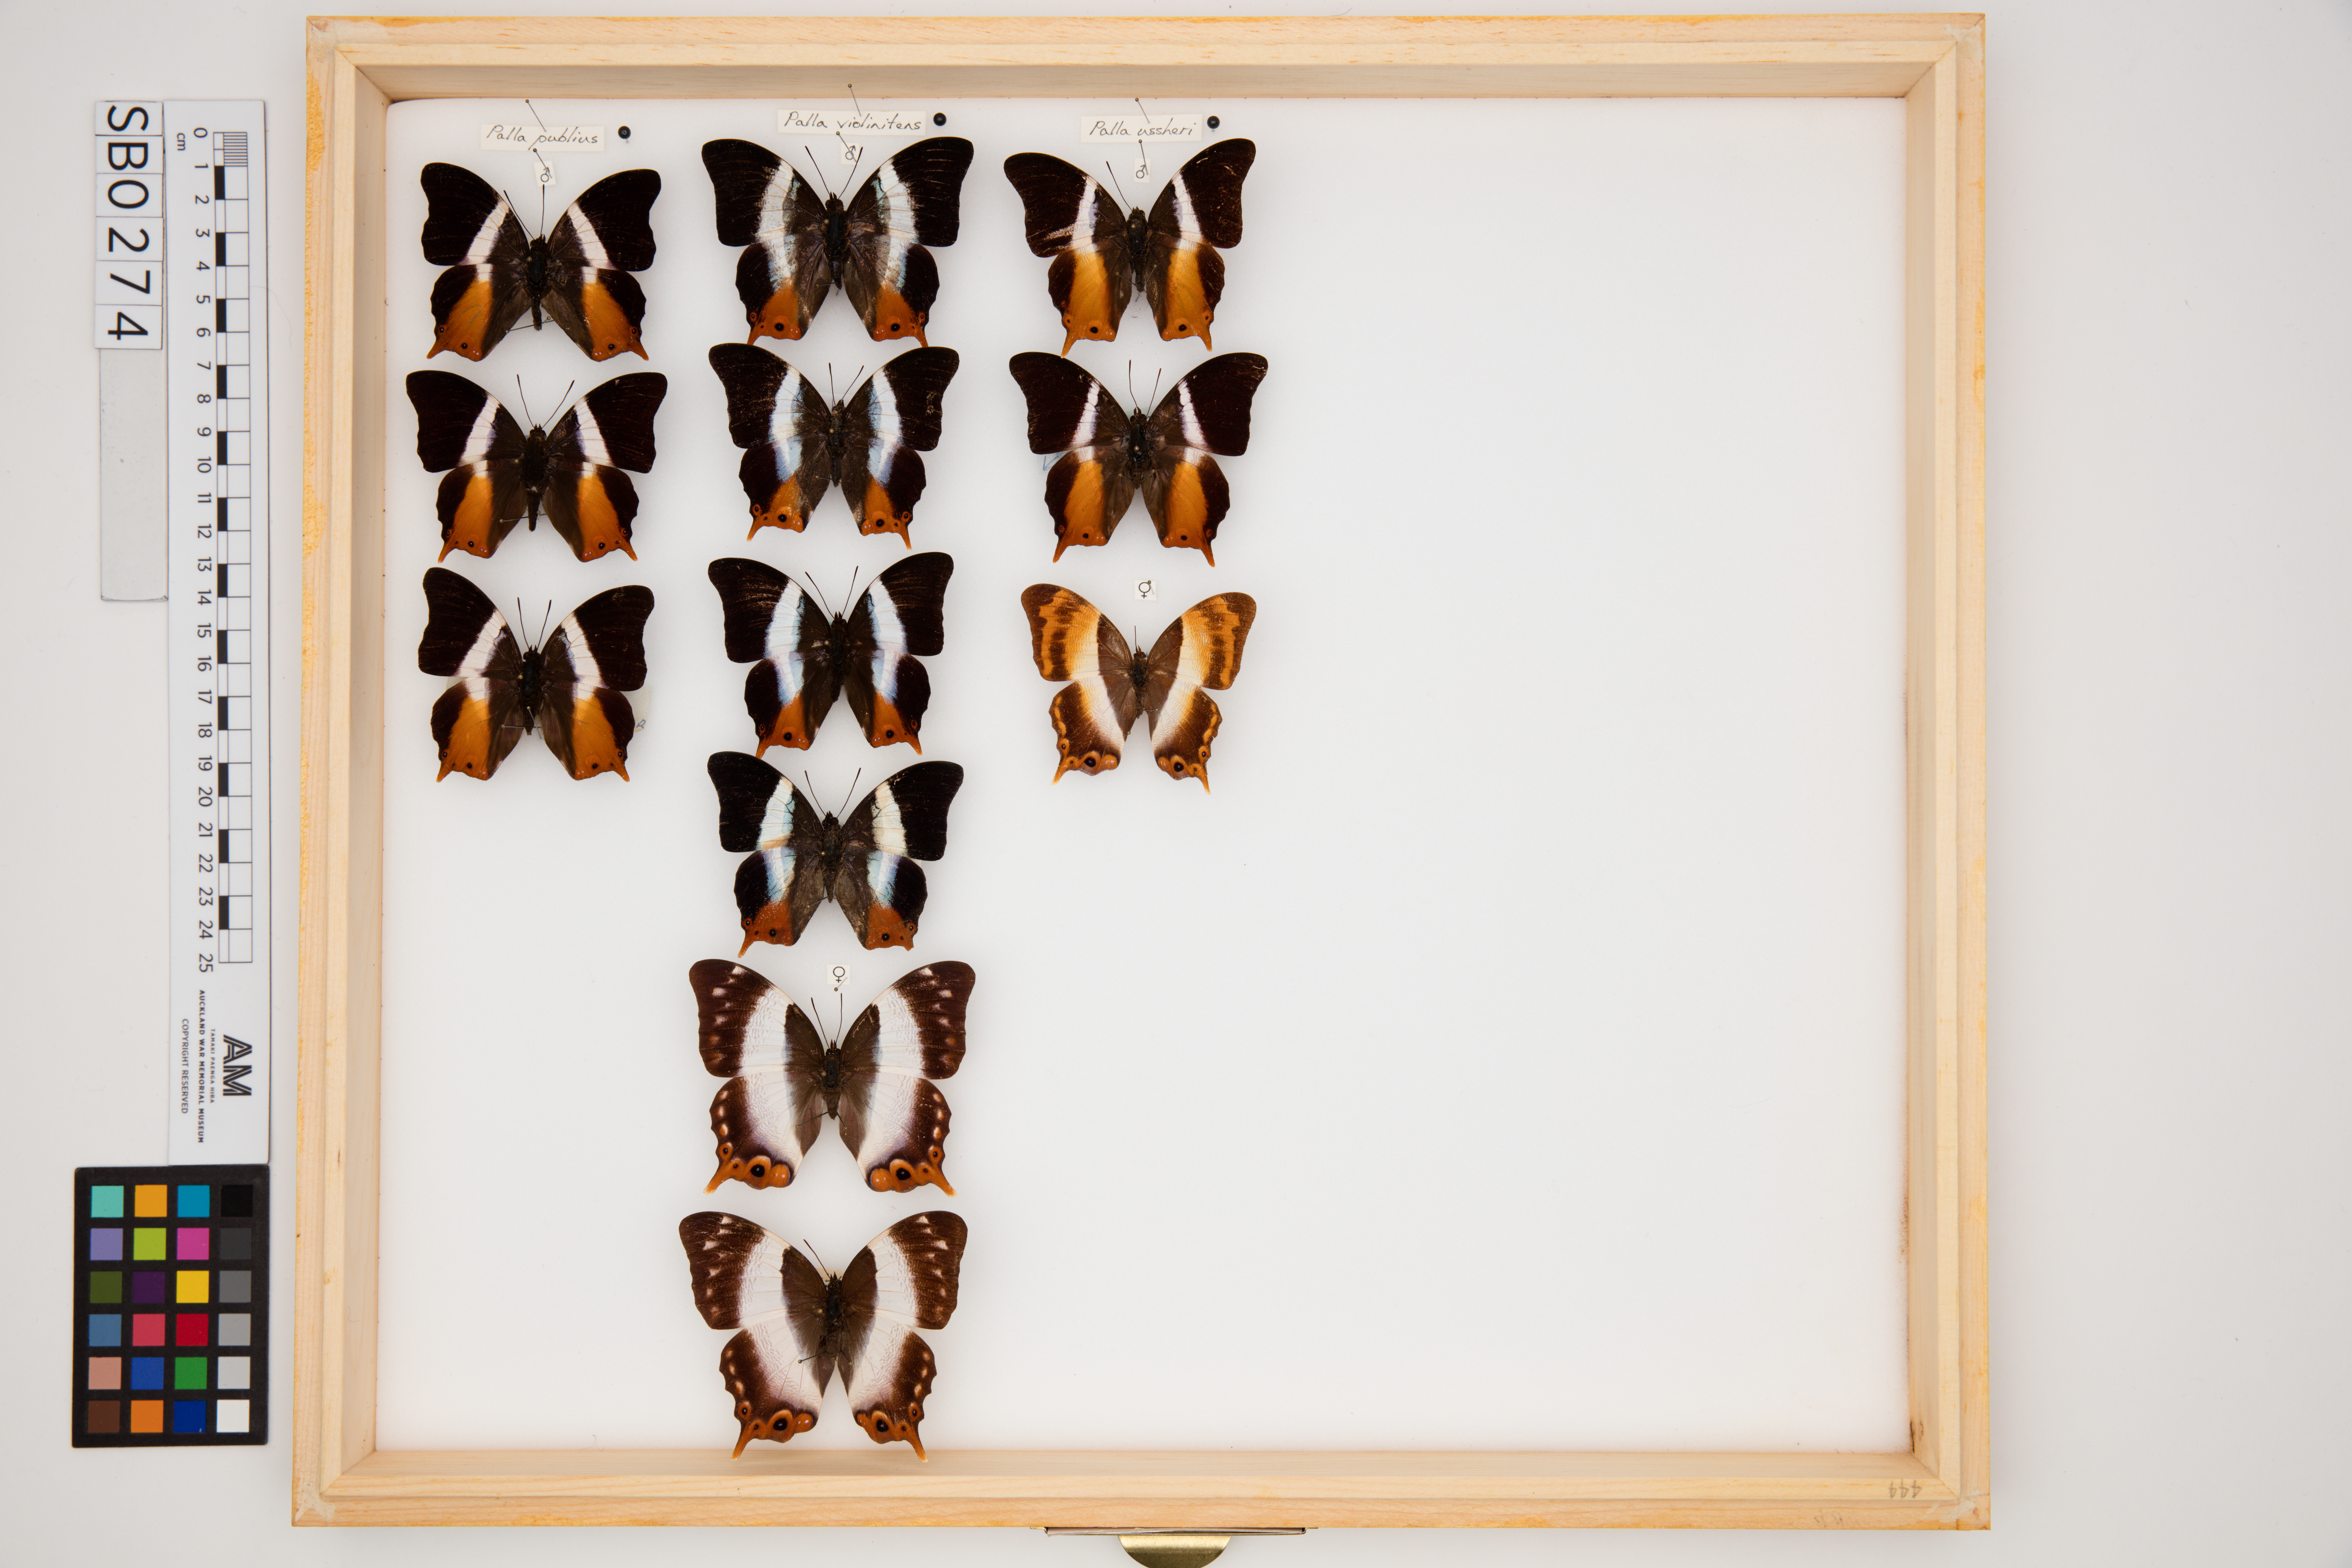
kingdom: Animalia
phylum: Arthropoda
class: Insecta
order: Lepidoptera
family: Nymphalidae
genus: Palla
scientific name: Palla violinitens
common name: Violet-banded palla
